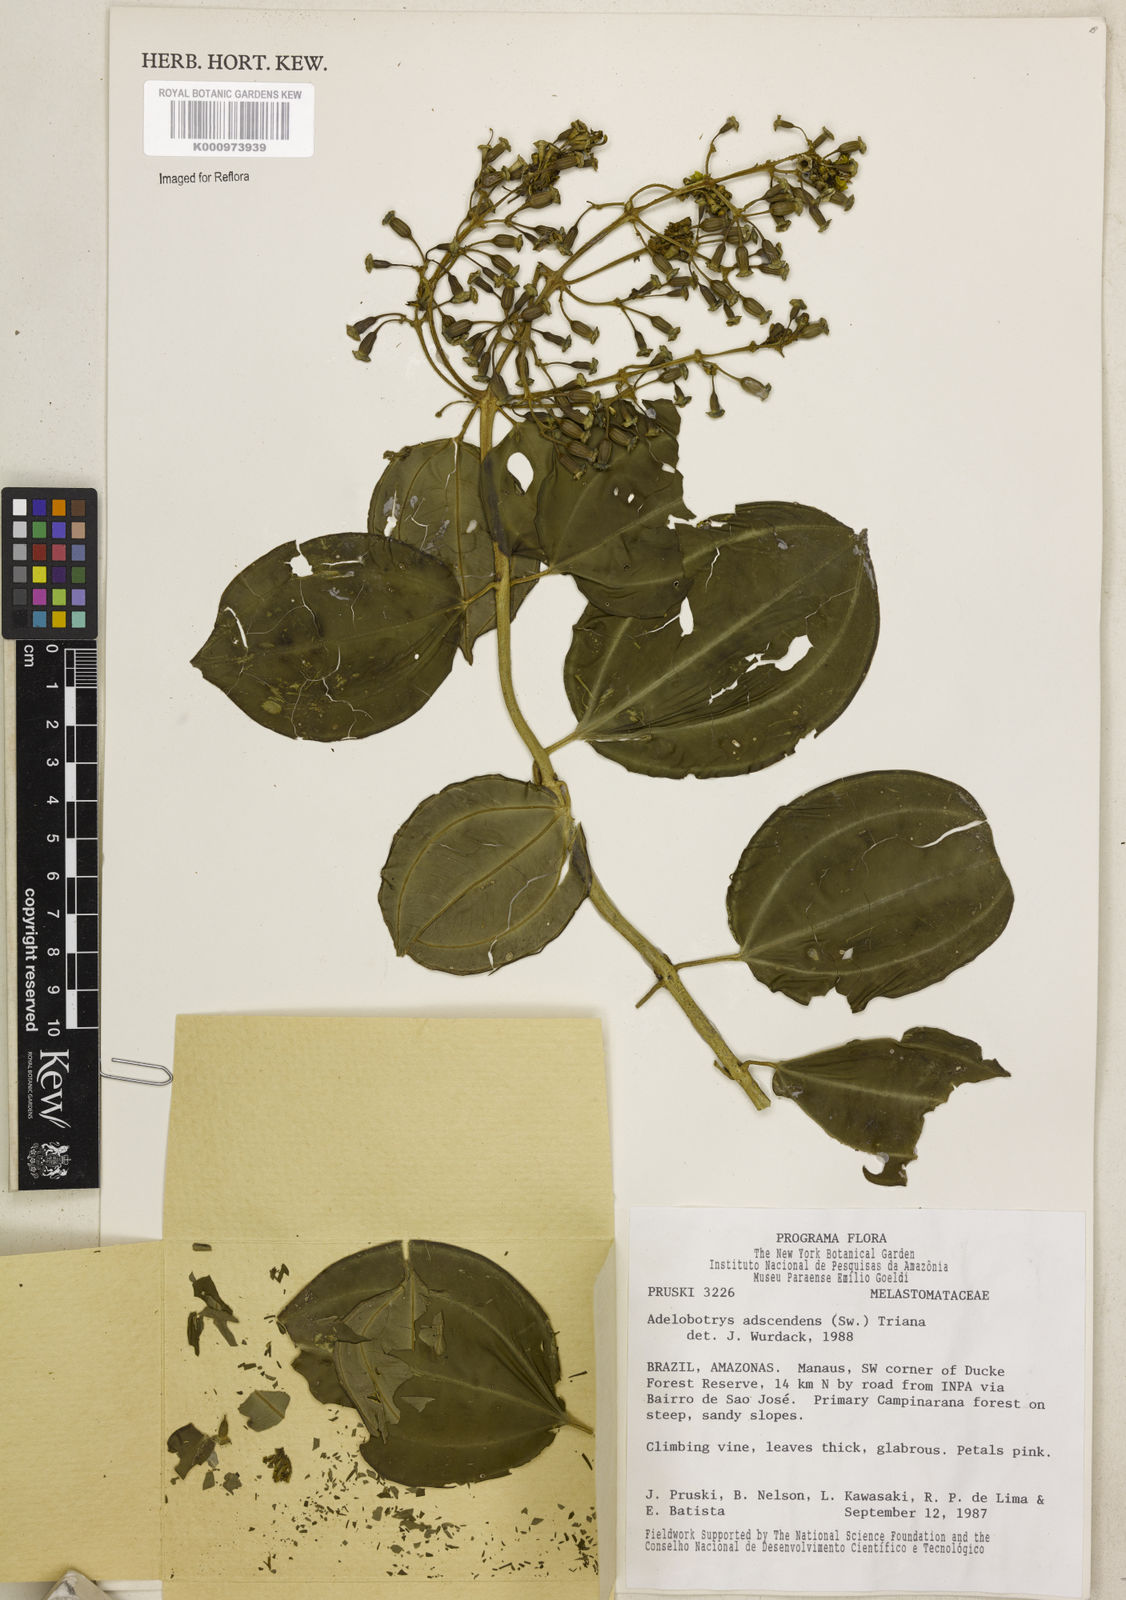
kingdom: Plantae
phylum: Tracheophyta
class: Magnoliopsida
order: Myrtales
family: Melastomataceae
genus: Adelobotrys
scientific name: Adelobotrys adscendens
